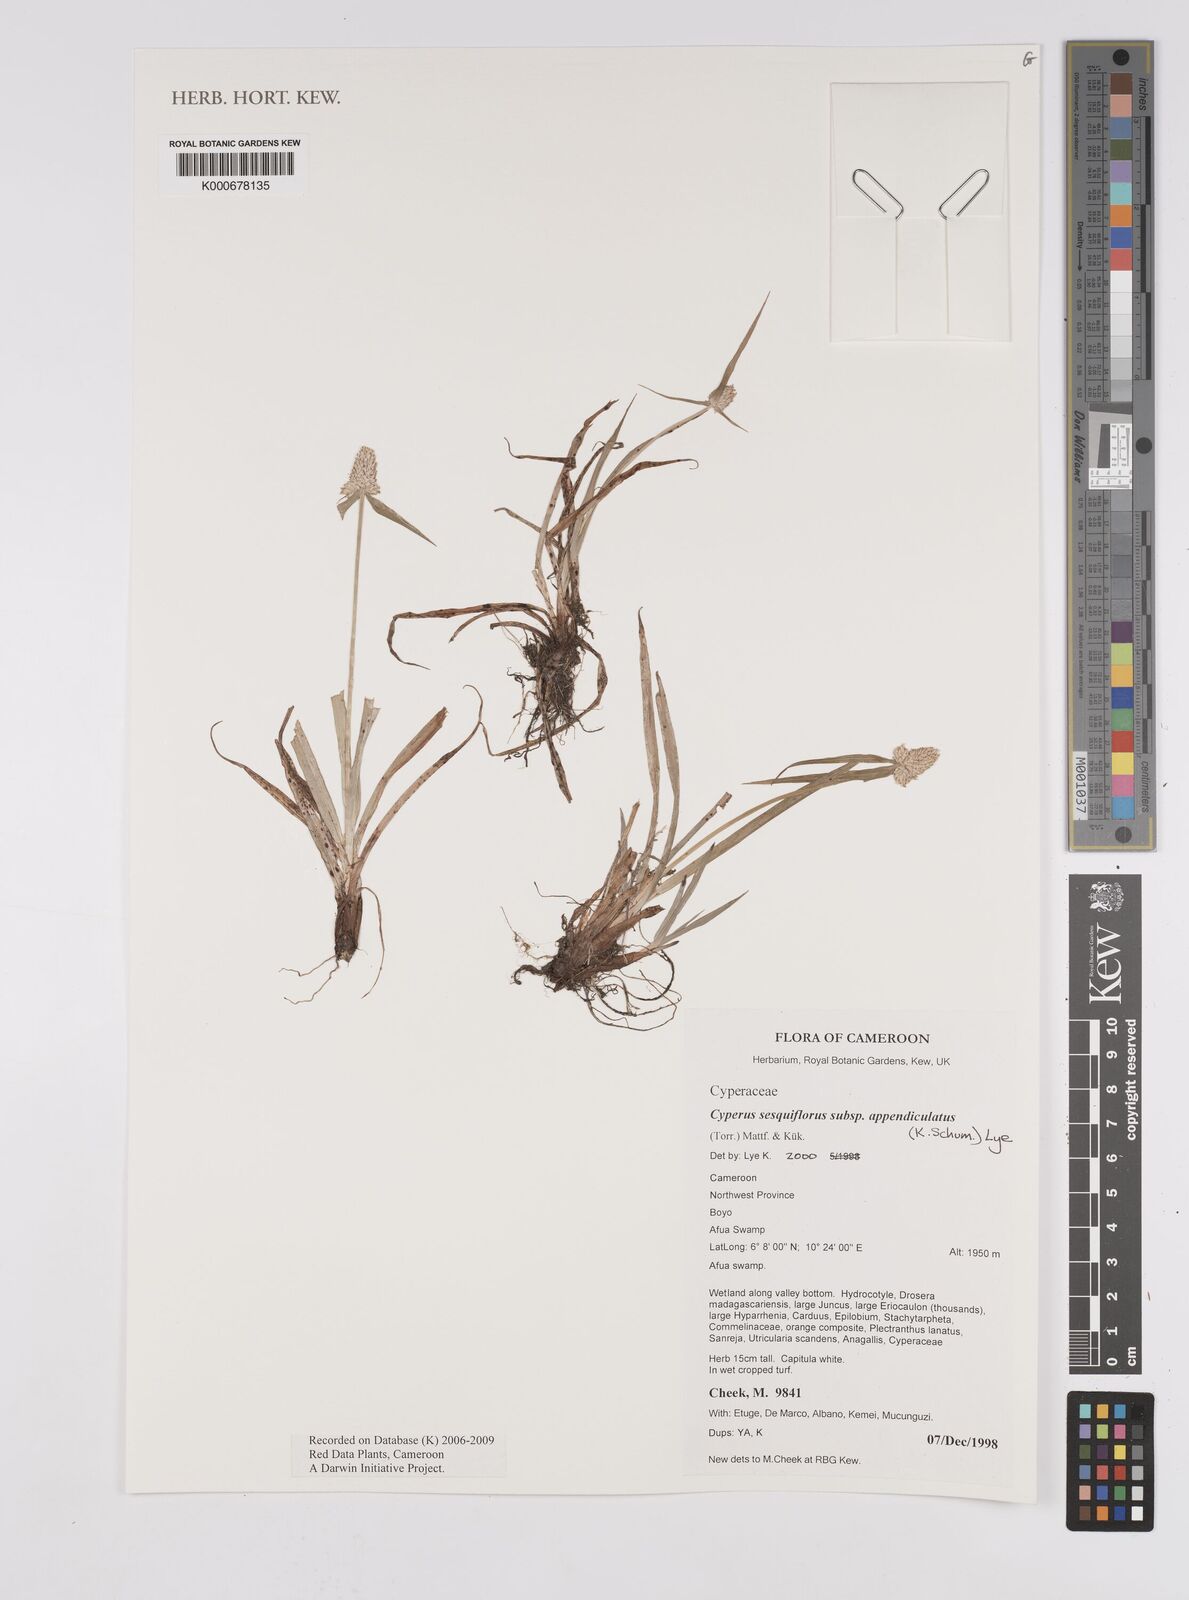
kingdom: Plantae
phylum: Tracheophyta
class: Liliopsida
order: Poales
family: Cyperaceae
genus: Cyperus
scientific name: Cyperus sesquiflorus
